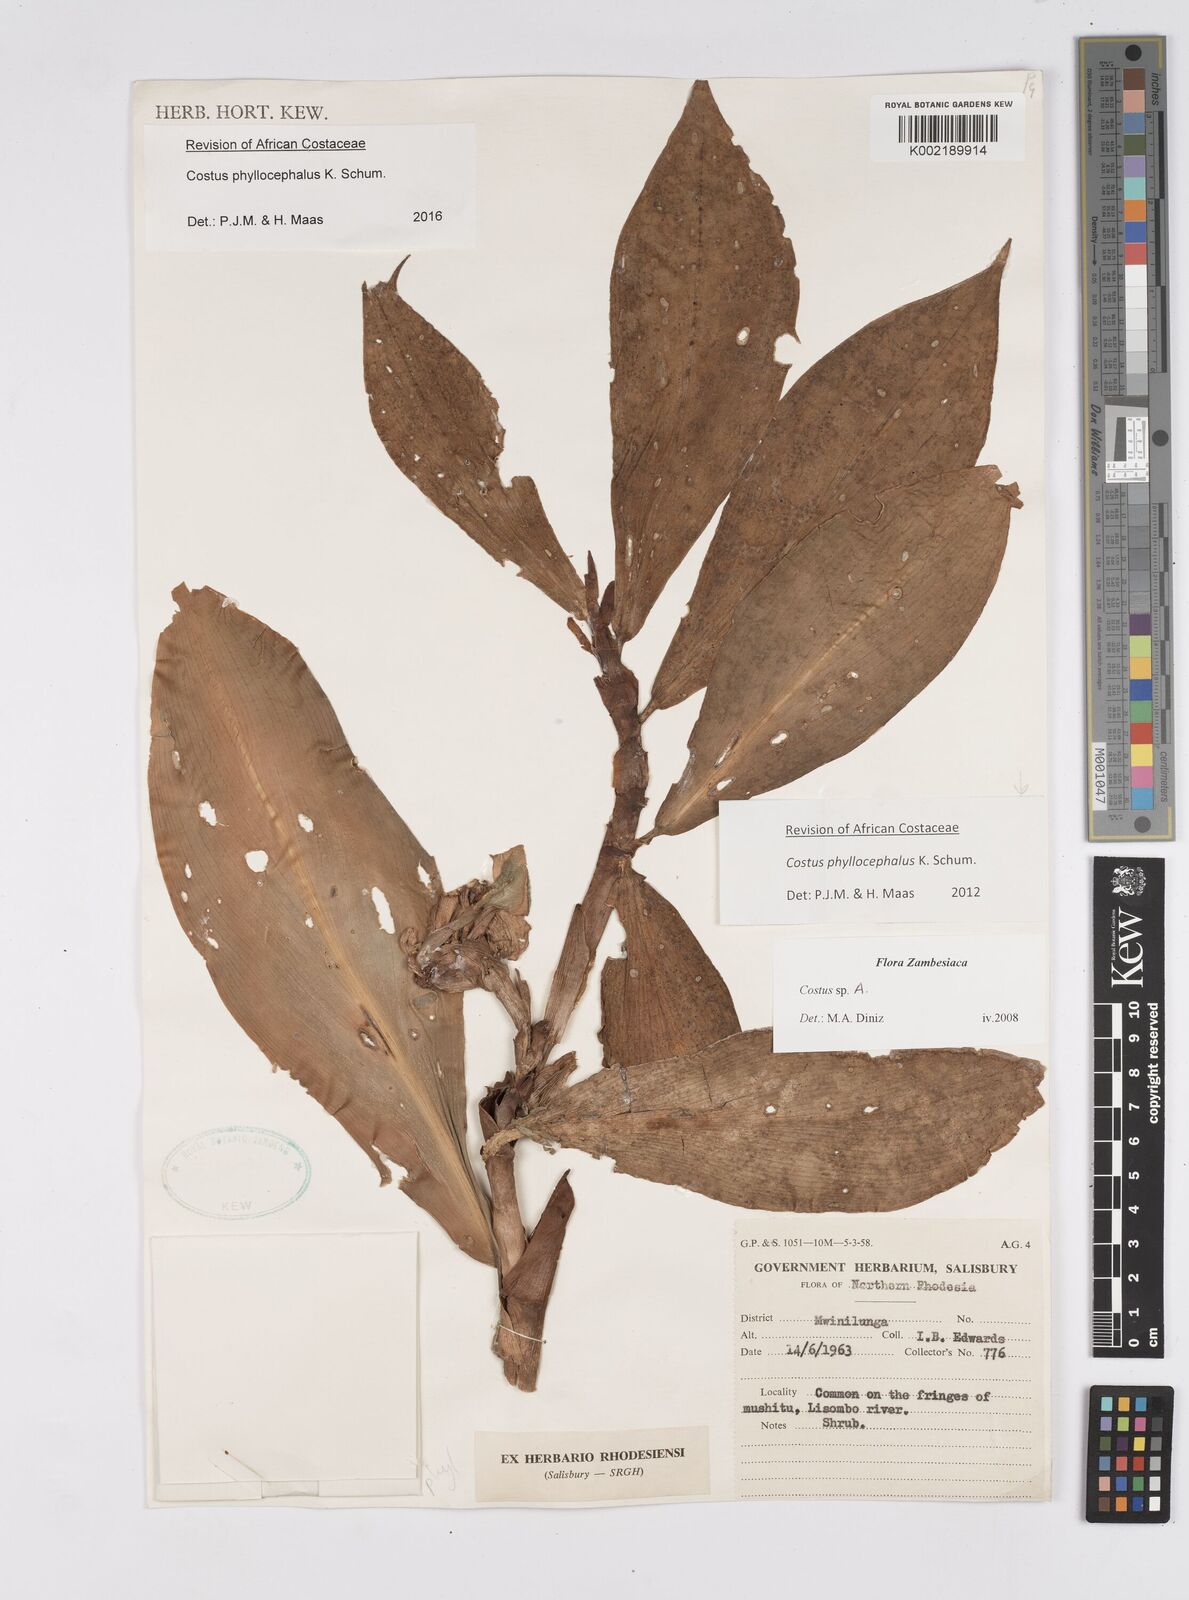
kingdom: Plantae
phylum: Tracheophyta
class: Liliopsida
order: Zingiberales
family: Costaceae
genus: Costus
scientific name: Costus phyllocephalus
